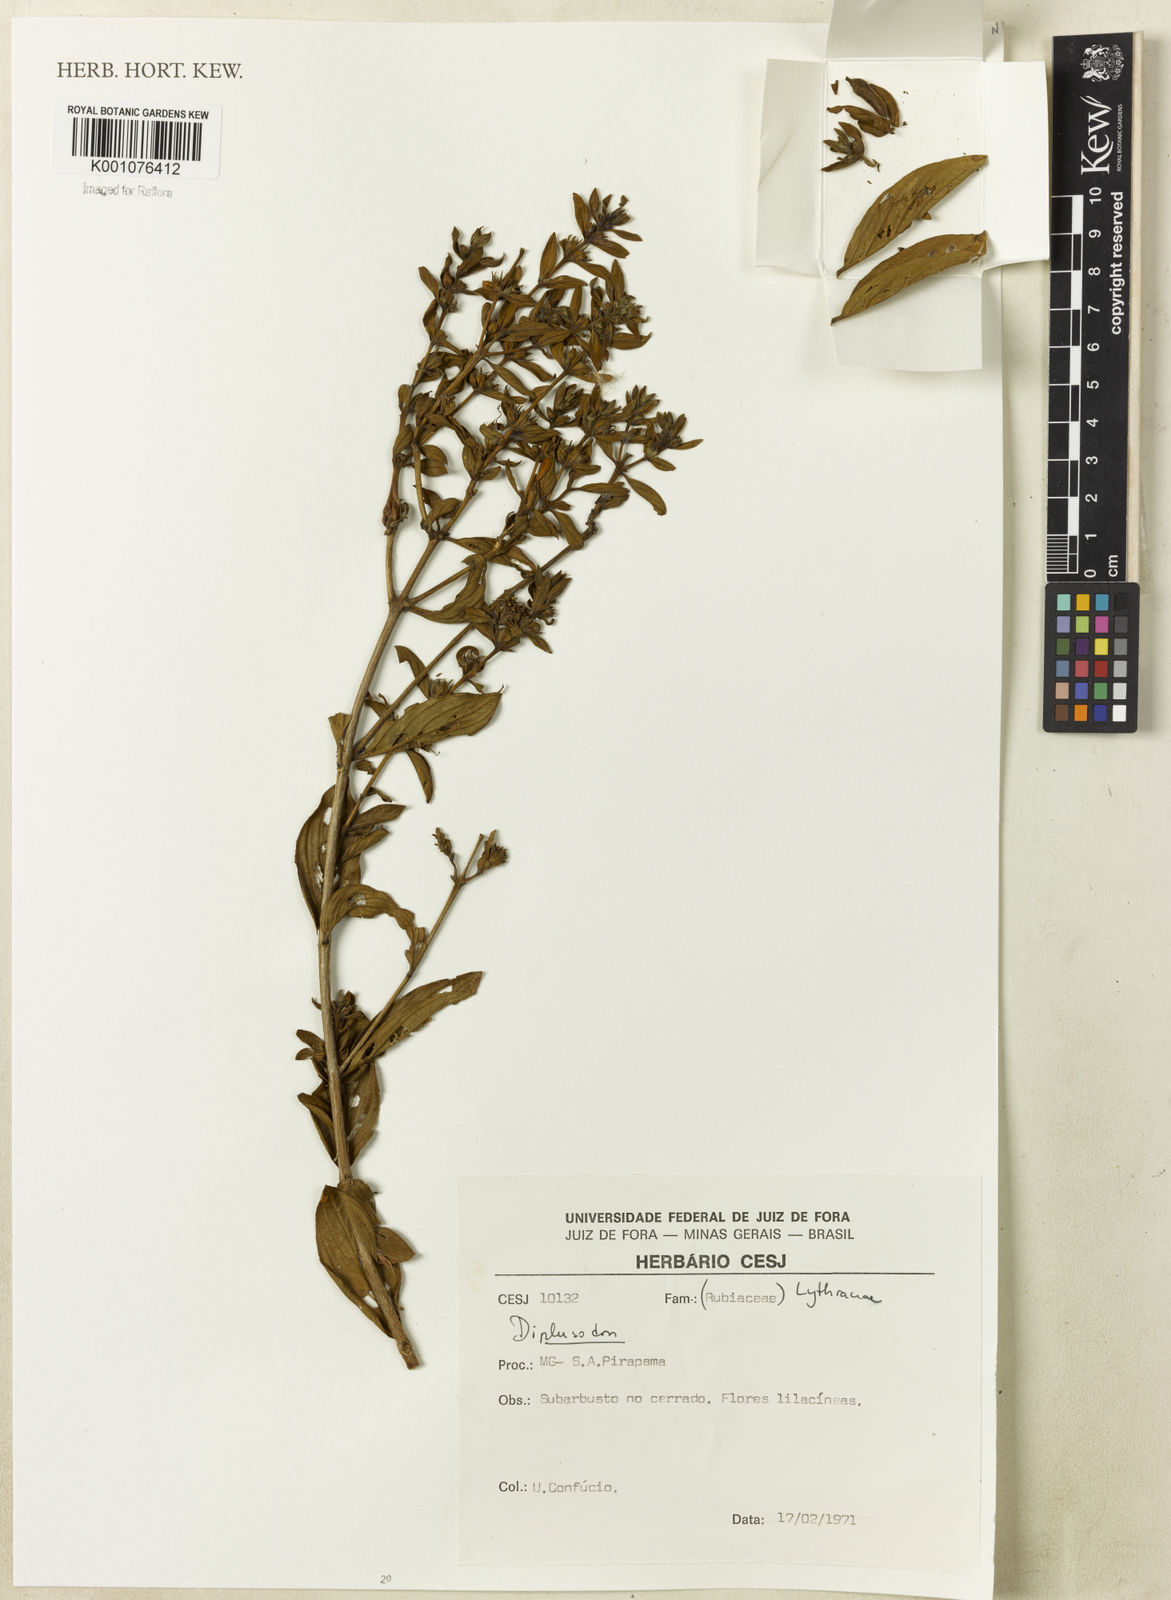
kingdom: Plantae
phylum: Tracheophyta
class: Magnoliopsida
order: Myrtales
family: Lythraceae
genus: Diplusodon
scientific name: Diplusodon
